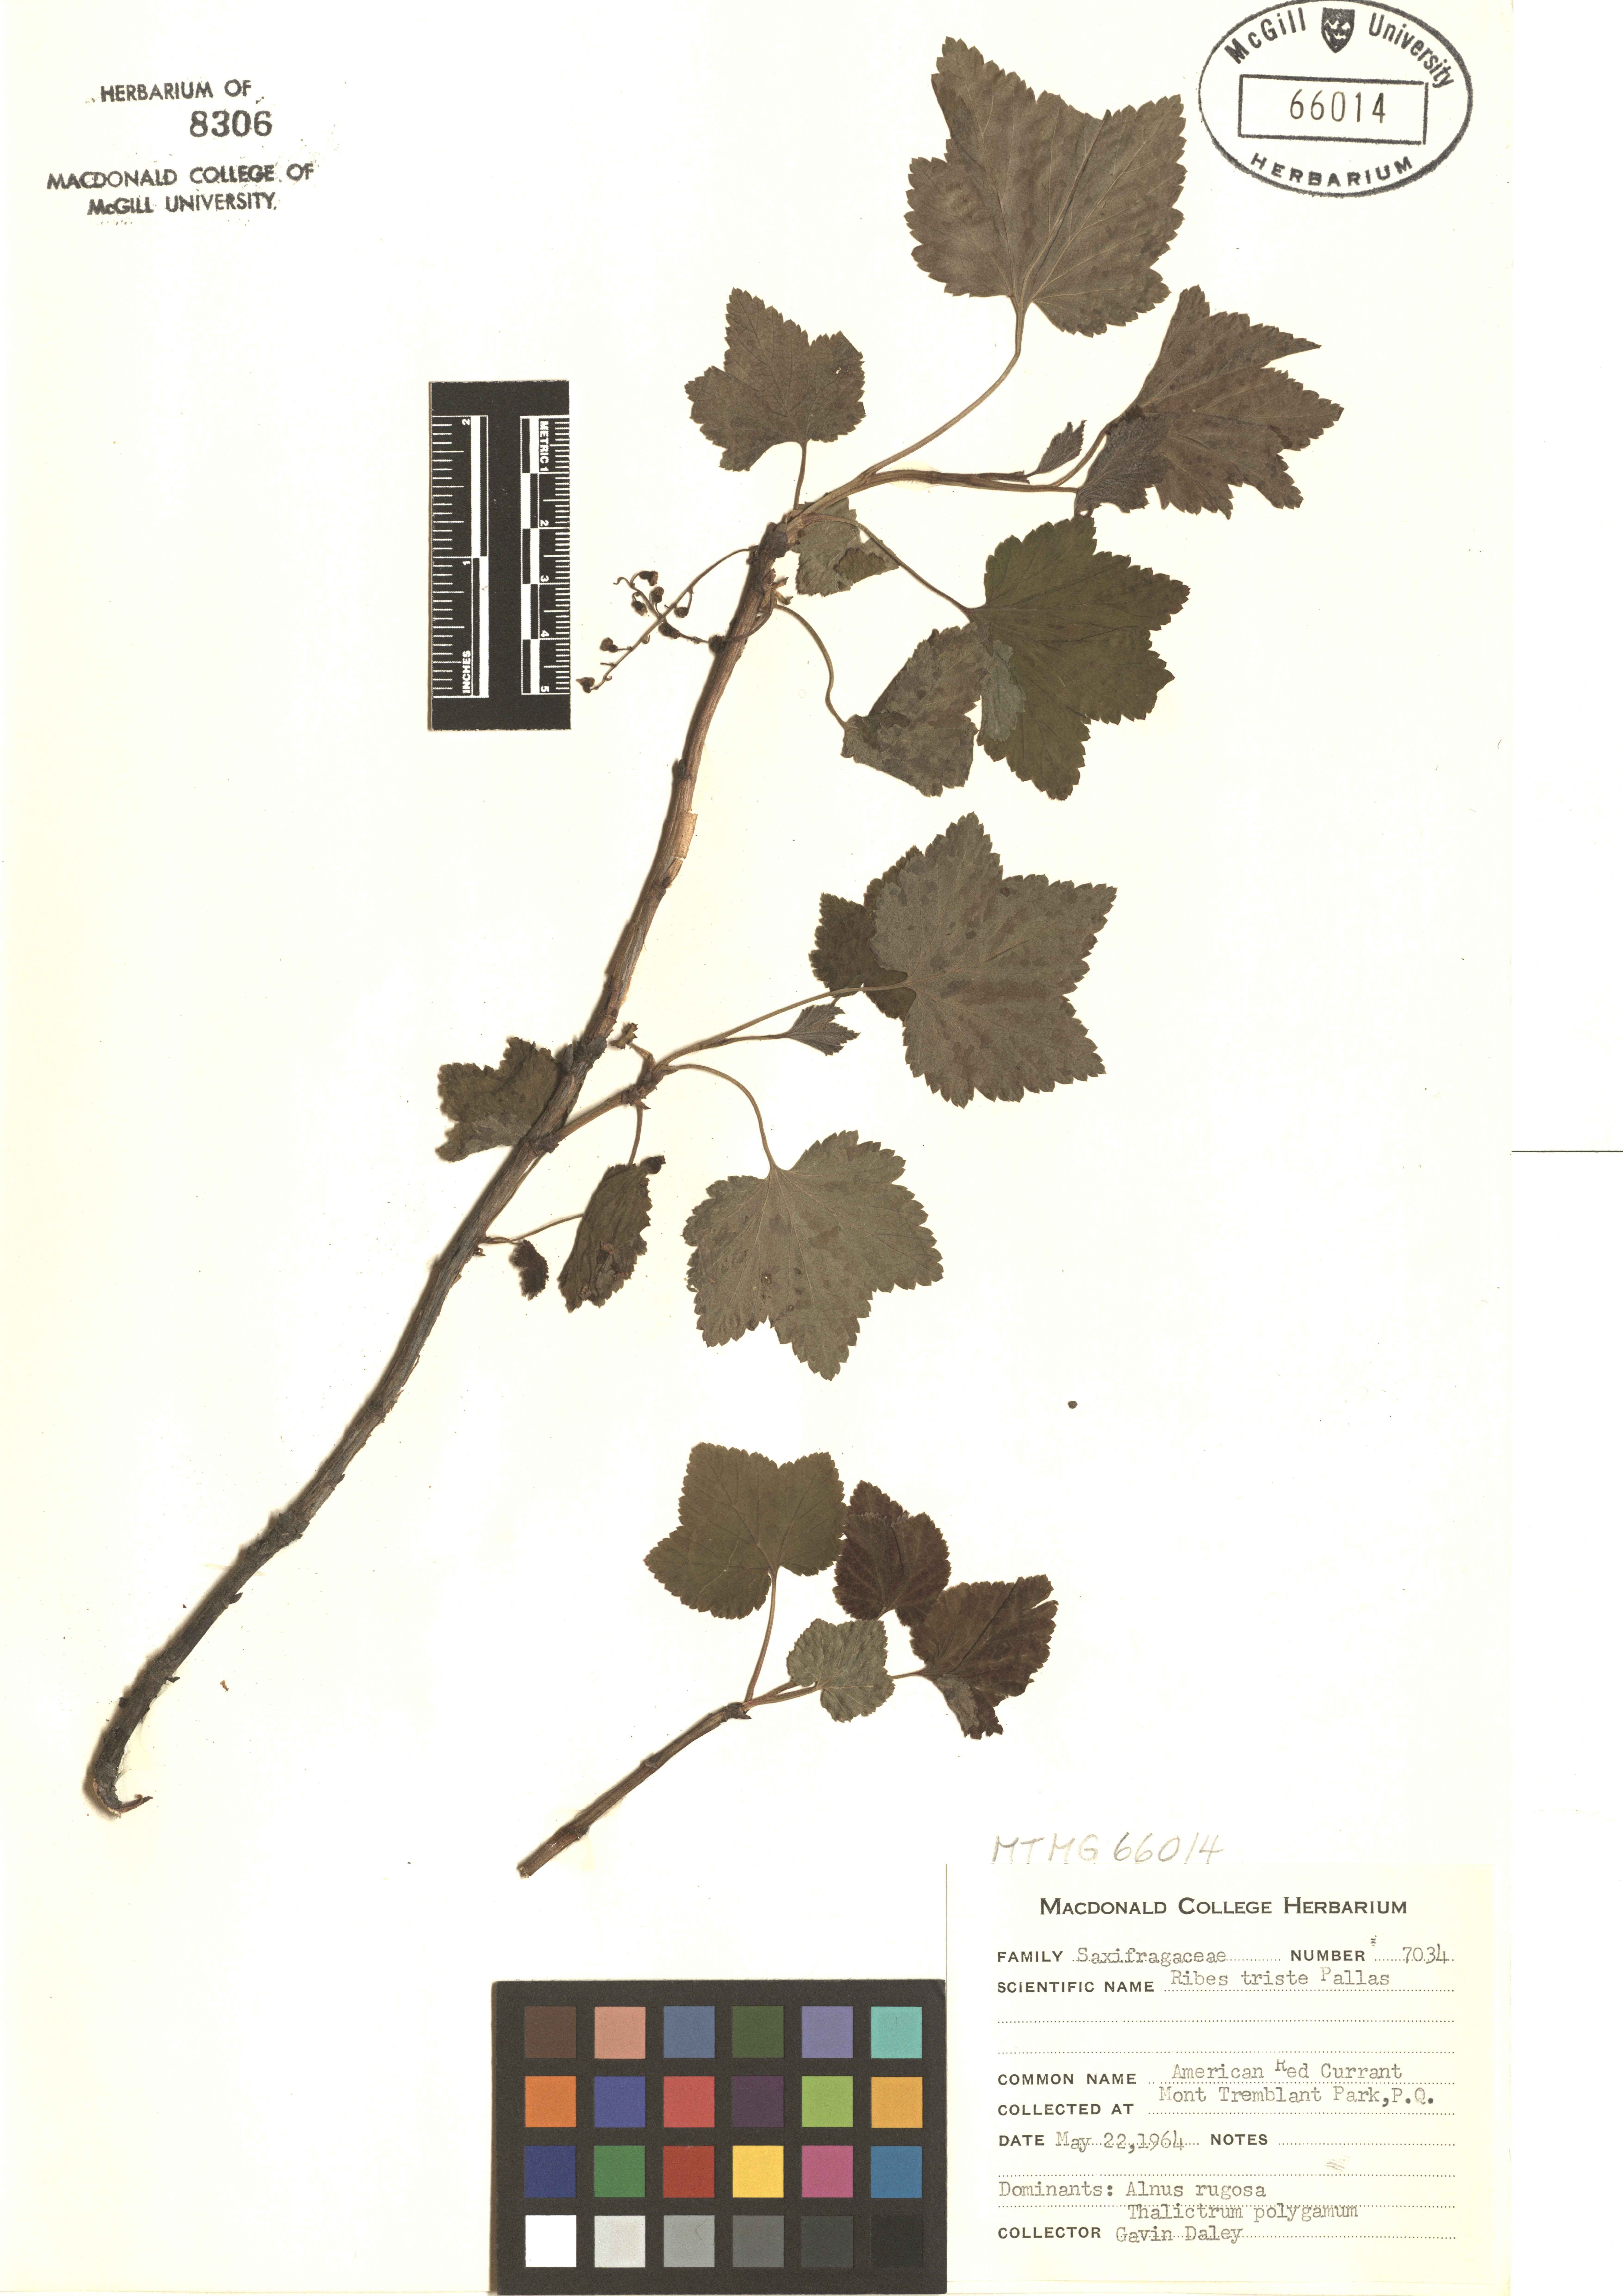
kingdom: Plantae
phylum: Tracheophyta
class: Magnoliopsida
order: Saxifragales
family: Grossulariaceae
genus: Ribes
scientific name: Ribes triste
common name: Swamp red currant
